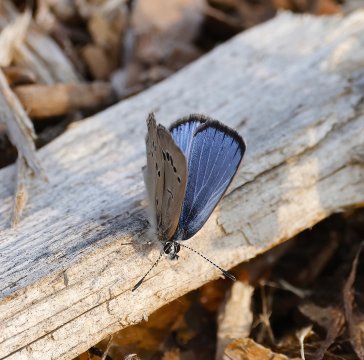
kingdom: Animalia
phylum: Arthropoda
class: Insecta
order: Lepidoptera
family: Lycaenidae
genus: Glaucopsyche
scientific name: Glaucopsyche lygdamus
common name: Silvery Blue
